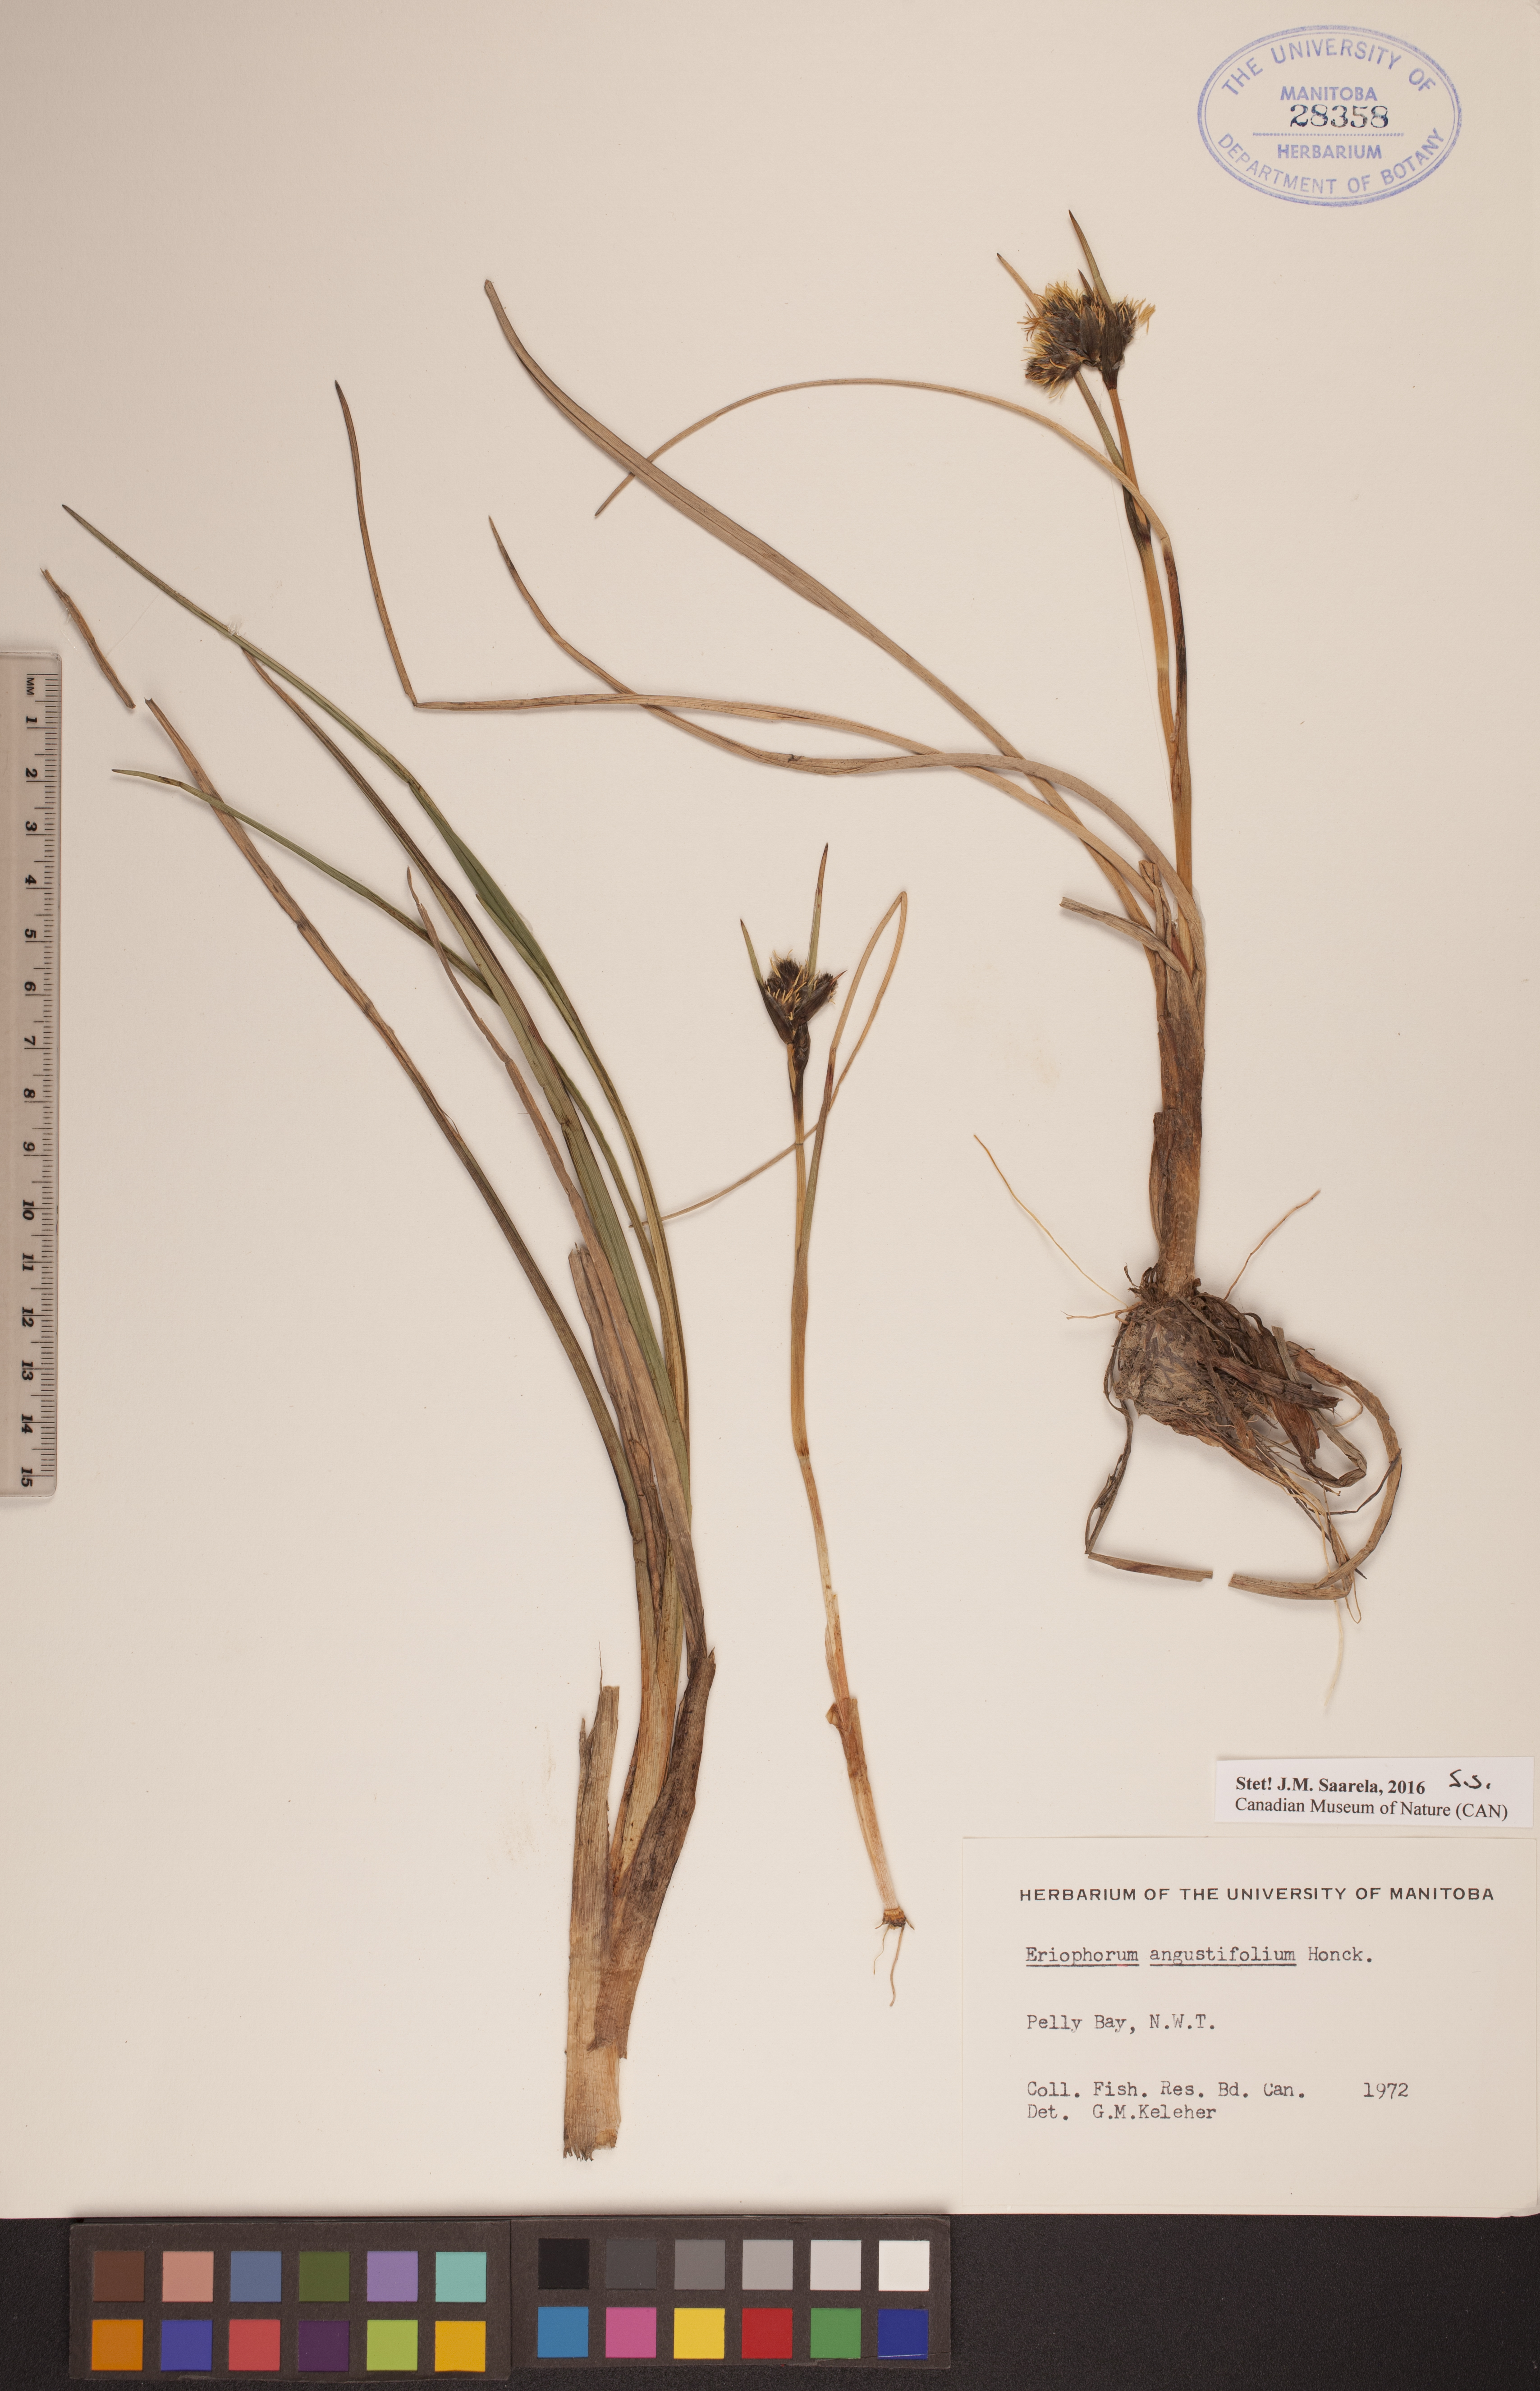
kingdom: Plantae
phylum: Tracheophyta
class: Liliopsida
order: Poales
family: Cyperaceae
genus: Eriophorum
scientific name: Eriophorum angustifolium
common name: Common cottongrass
